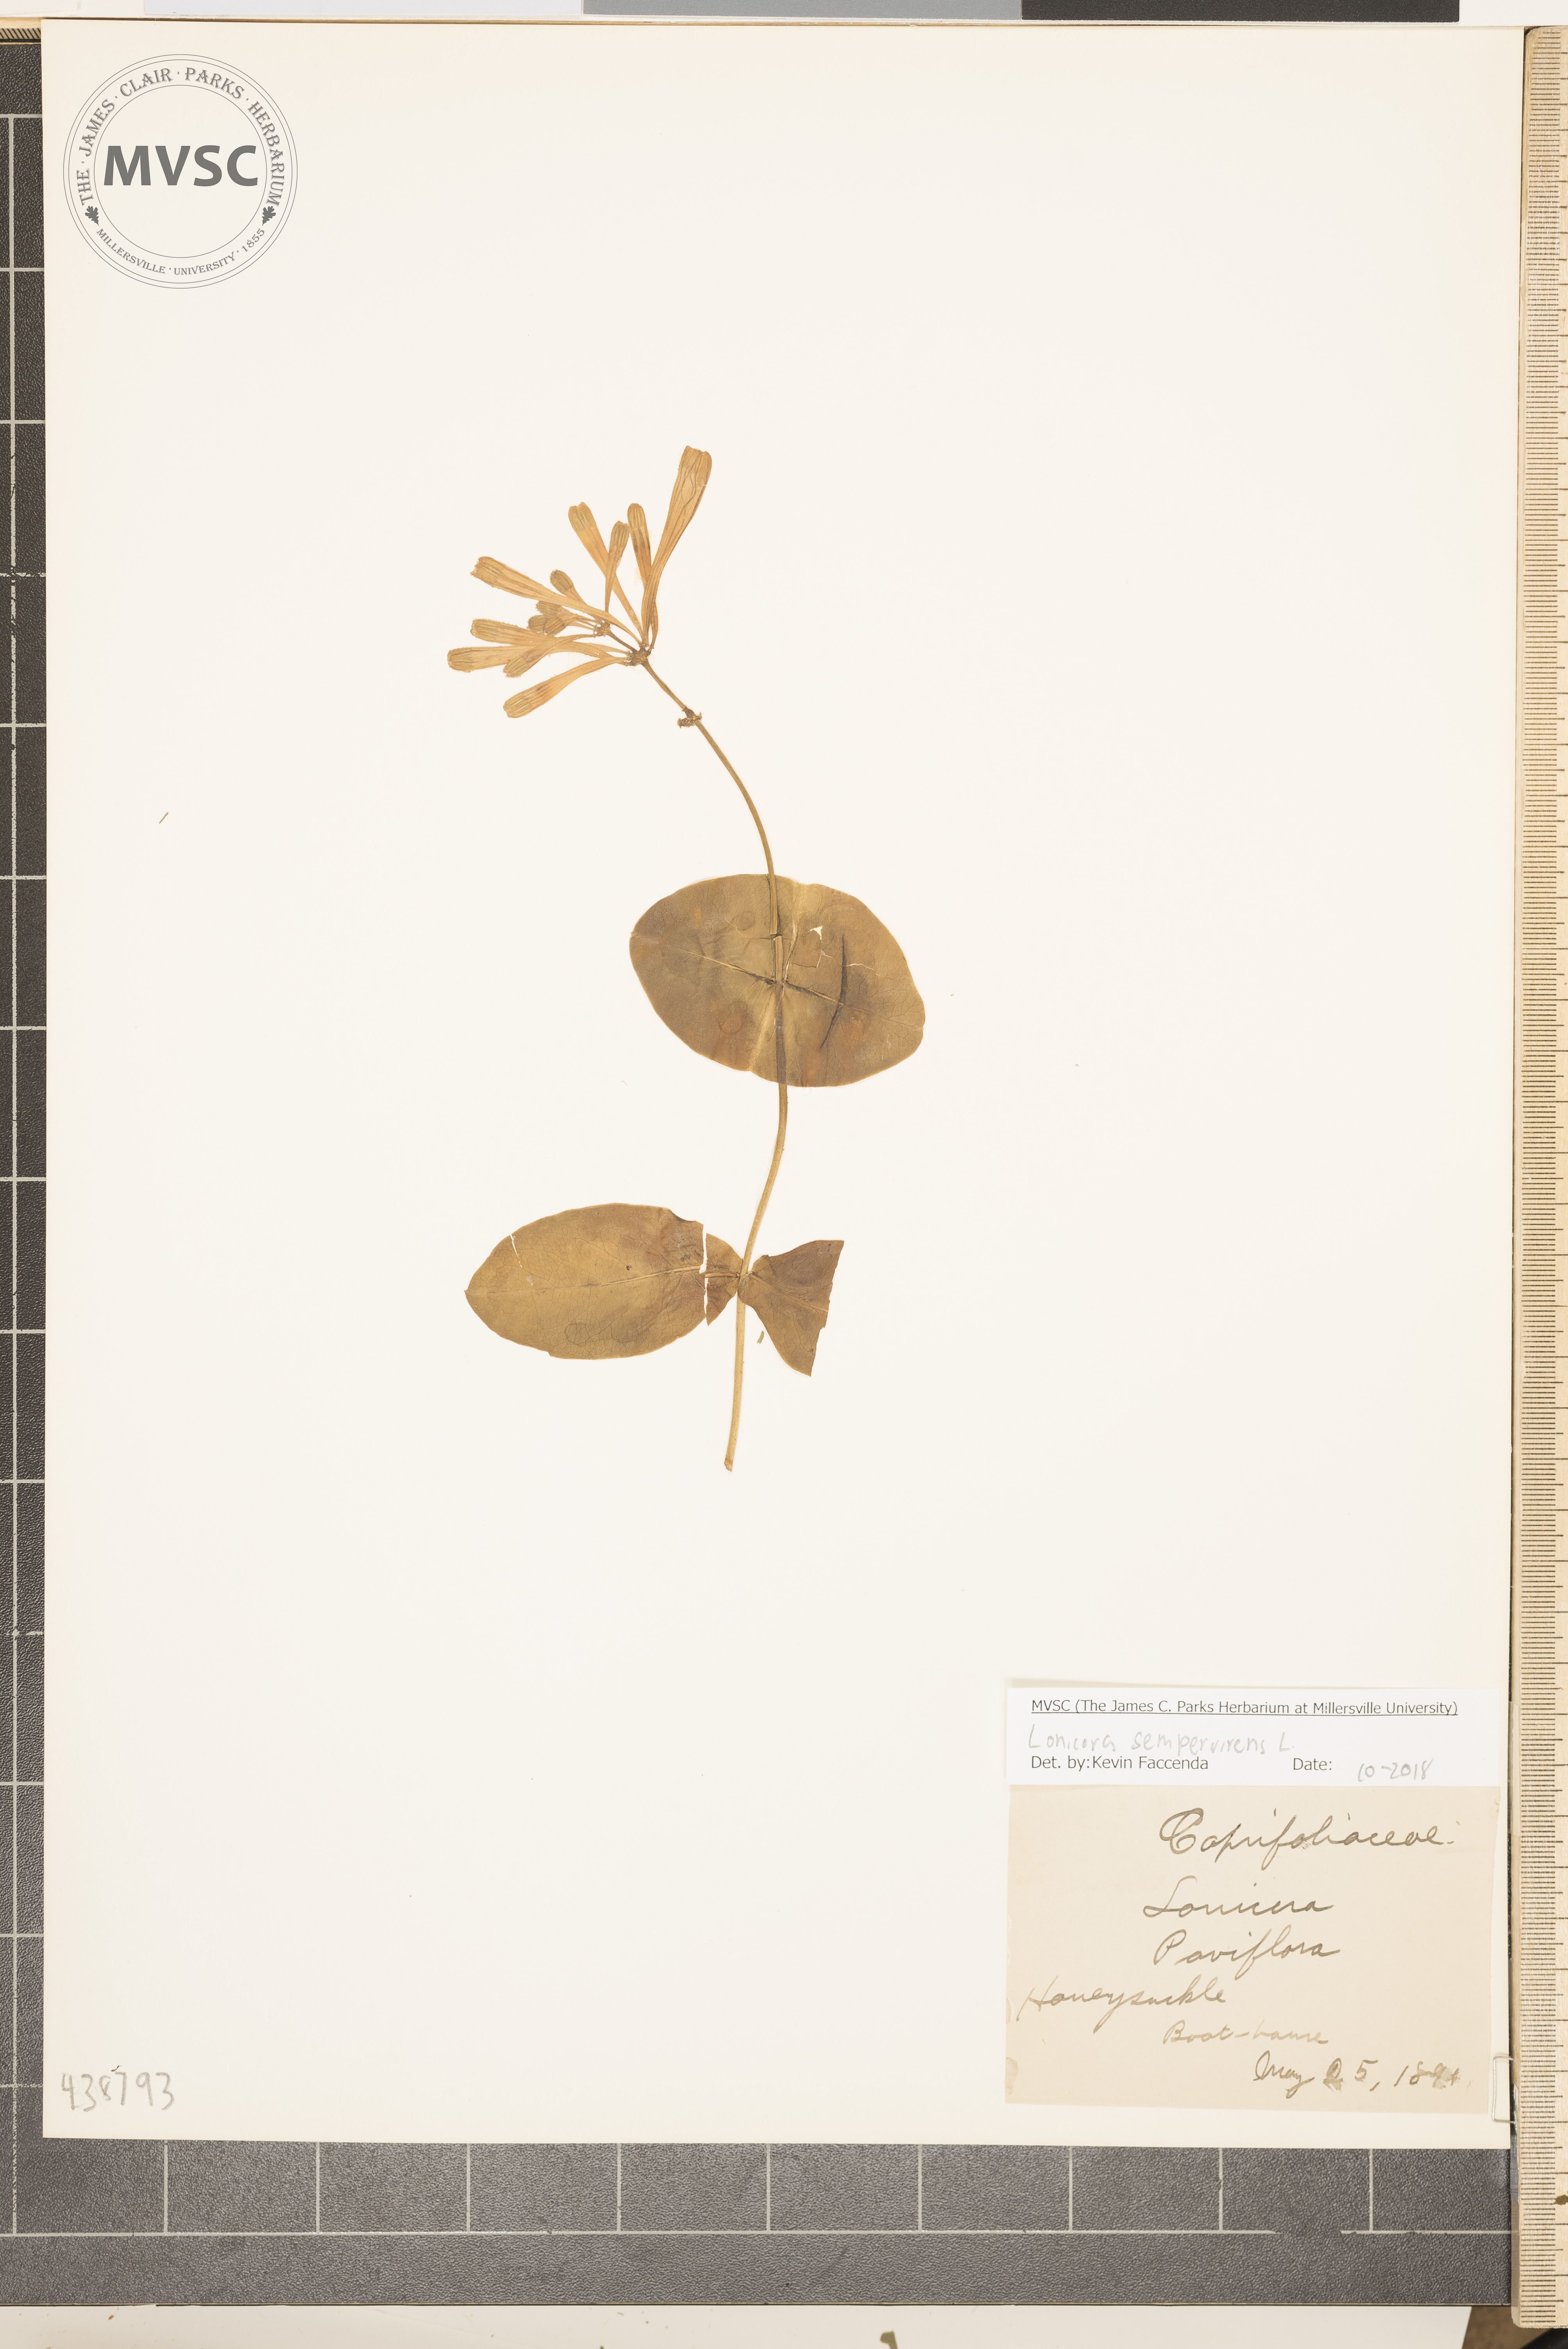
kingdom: Plantae
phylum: Tracheophyta
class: Magnoliopsida
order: Dipsacales
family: Caprifoliaceae
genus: Lonicera
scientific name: Lonicera sempervirens
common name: Honeysuckle
